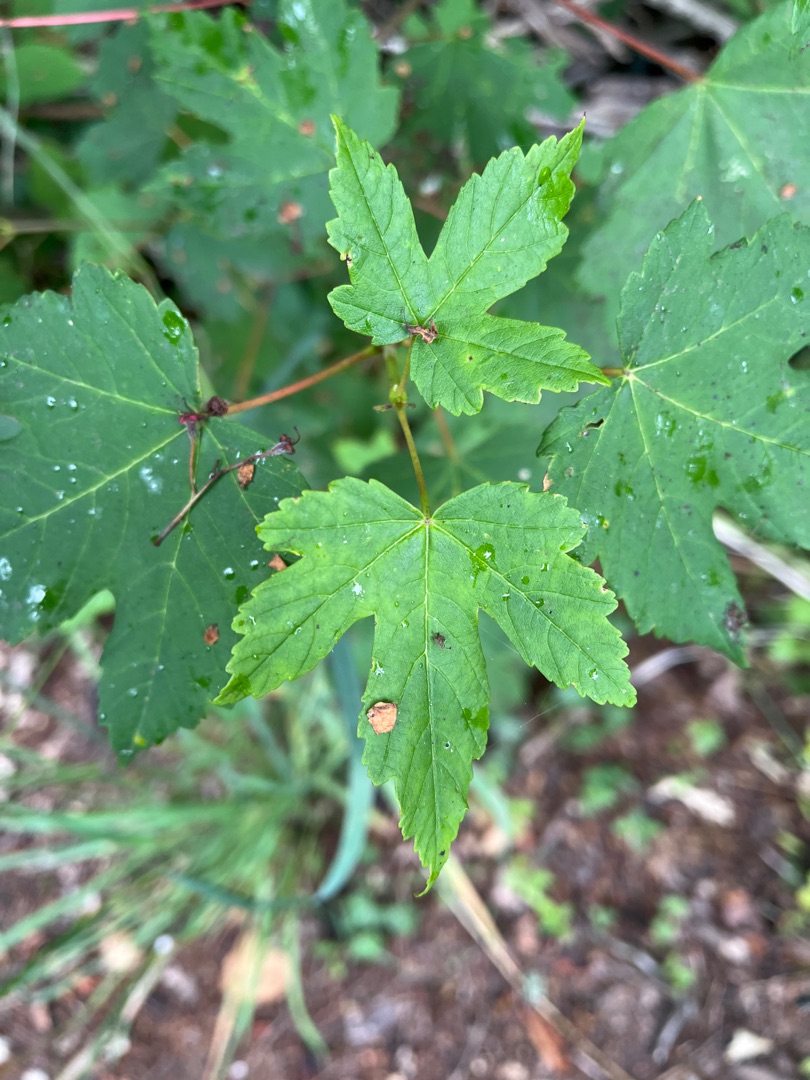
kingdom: Plantae
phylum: Tracheophyta
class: Magnoliopsida
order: Sapindales
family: Sapindaceae
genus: Acer
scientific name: Acer pseudoplatanus
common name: Ahorn
